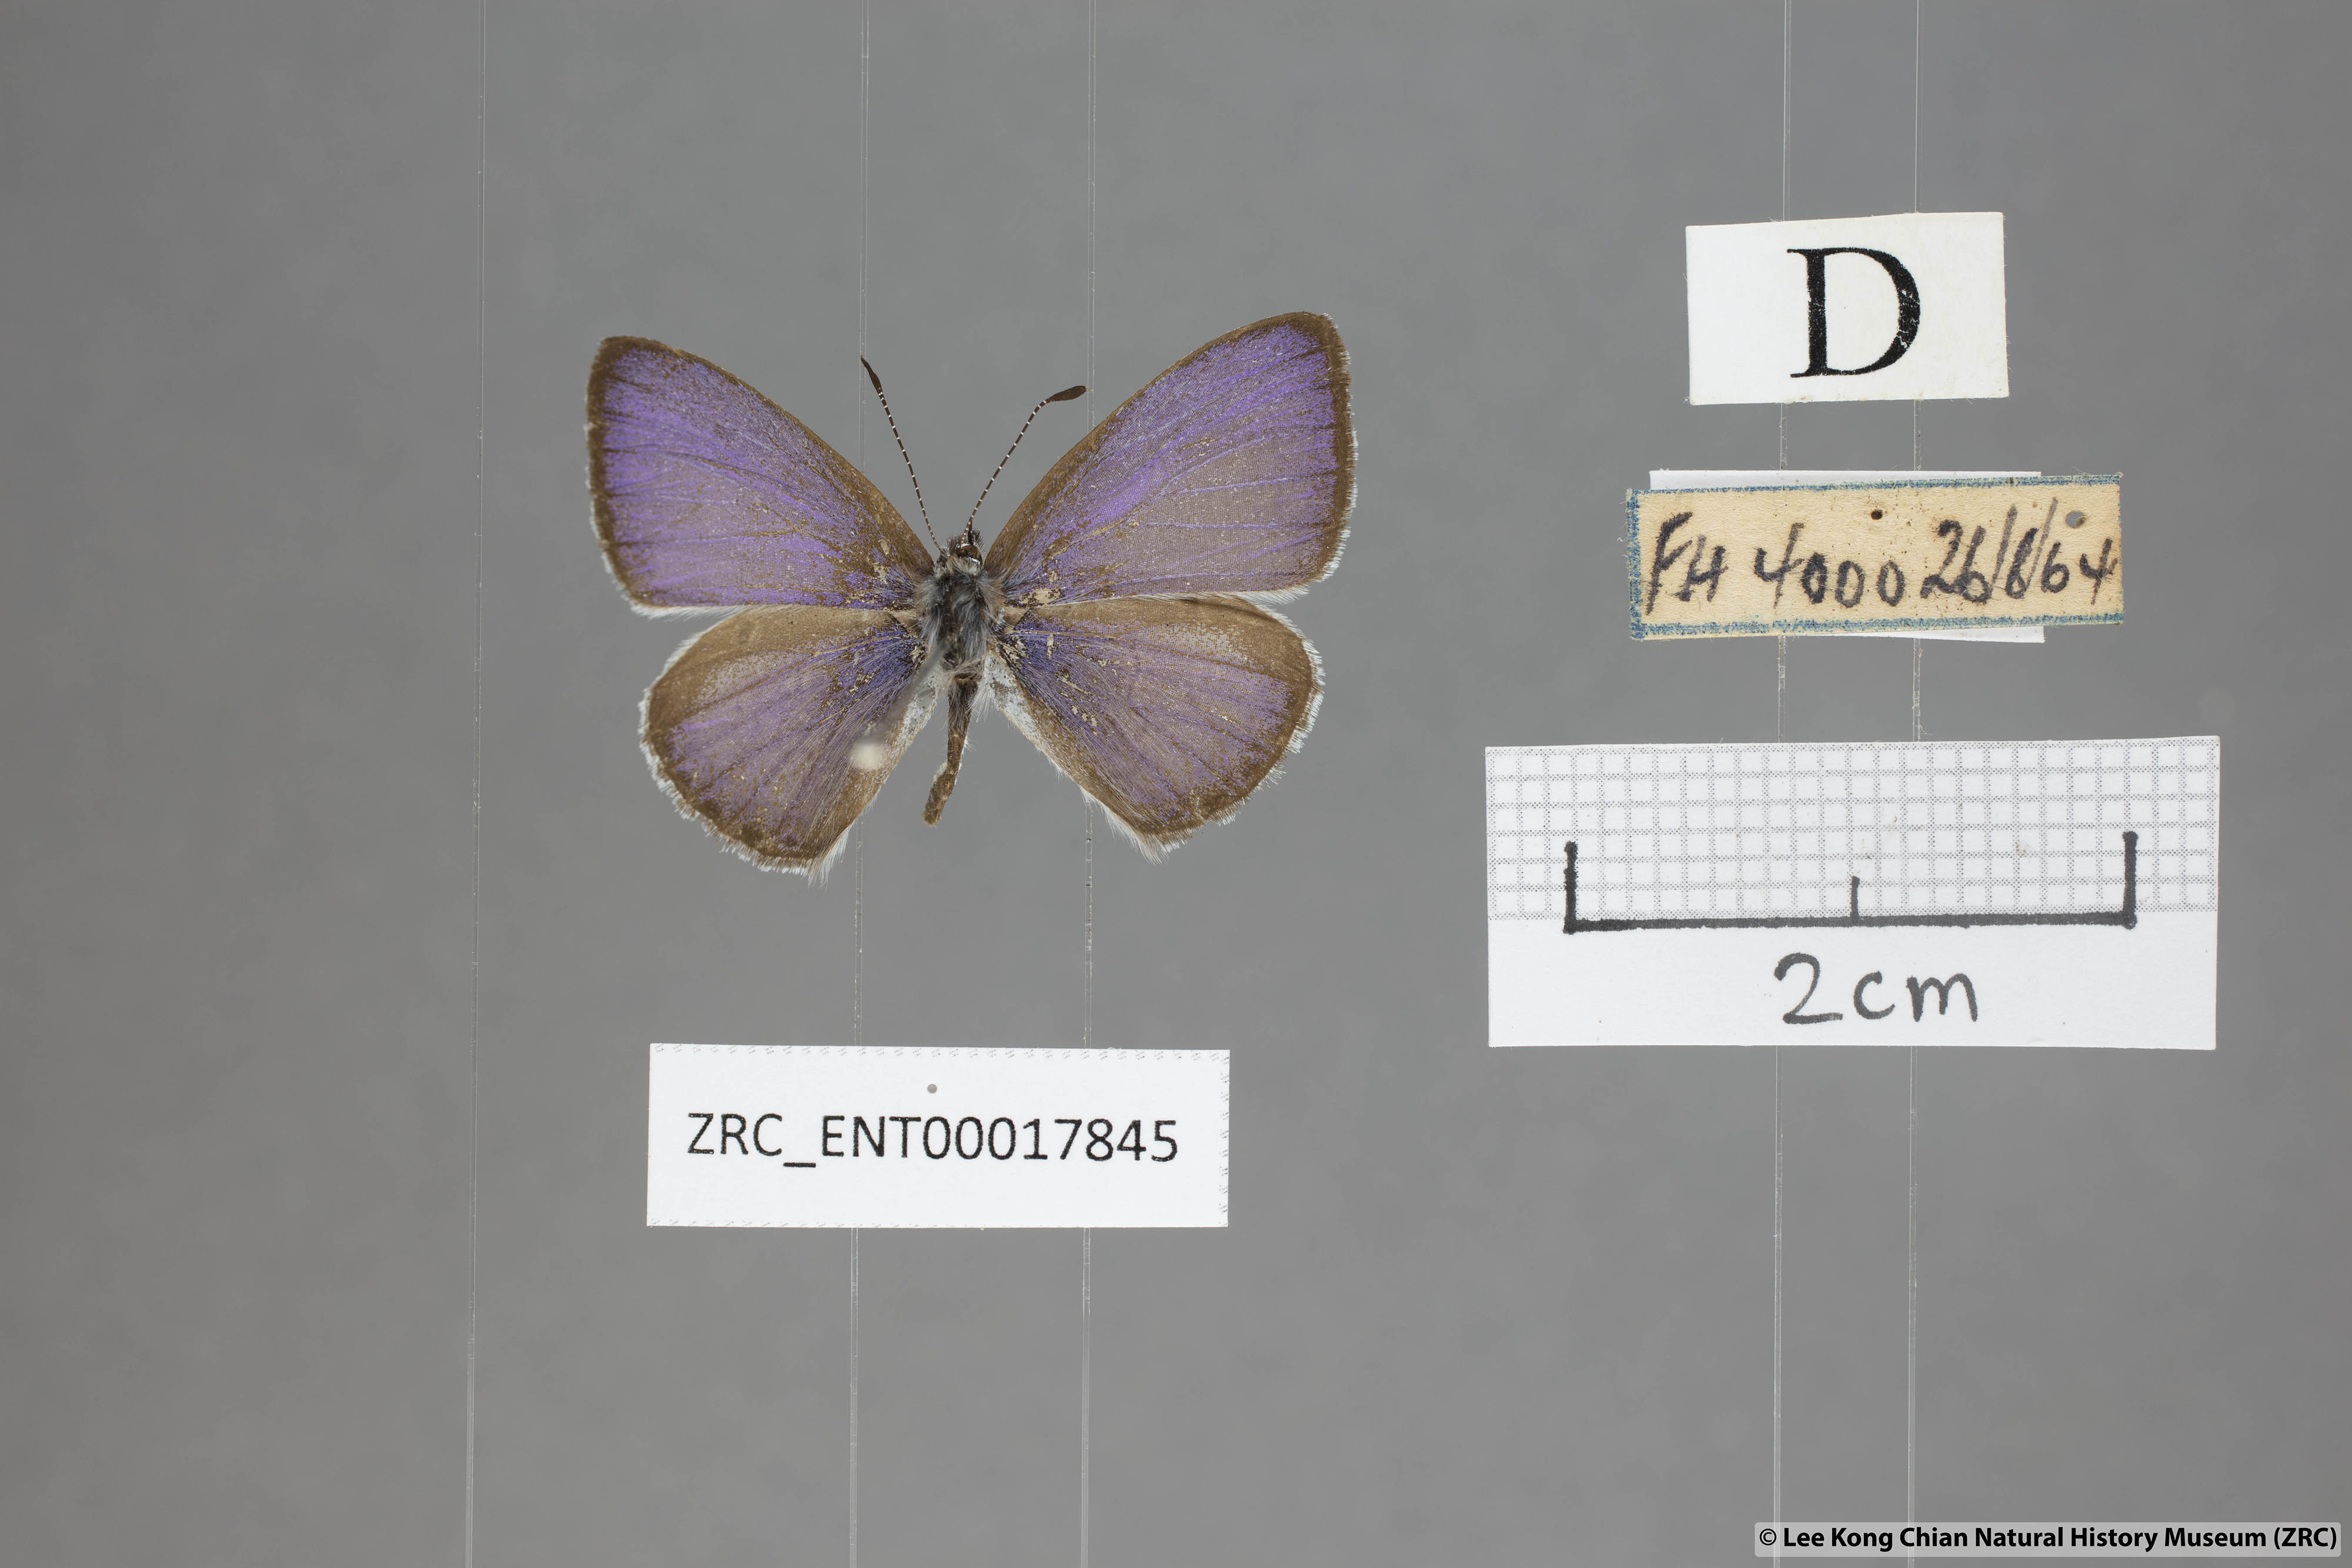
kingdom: Animalia
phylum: Arthropoda
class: Insecta
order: Lepidoptera
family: Lycaenidae
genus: Udara
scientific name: Udara
